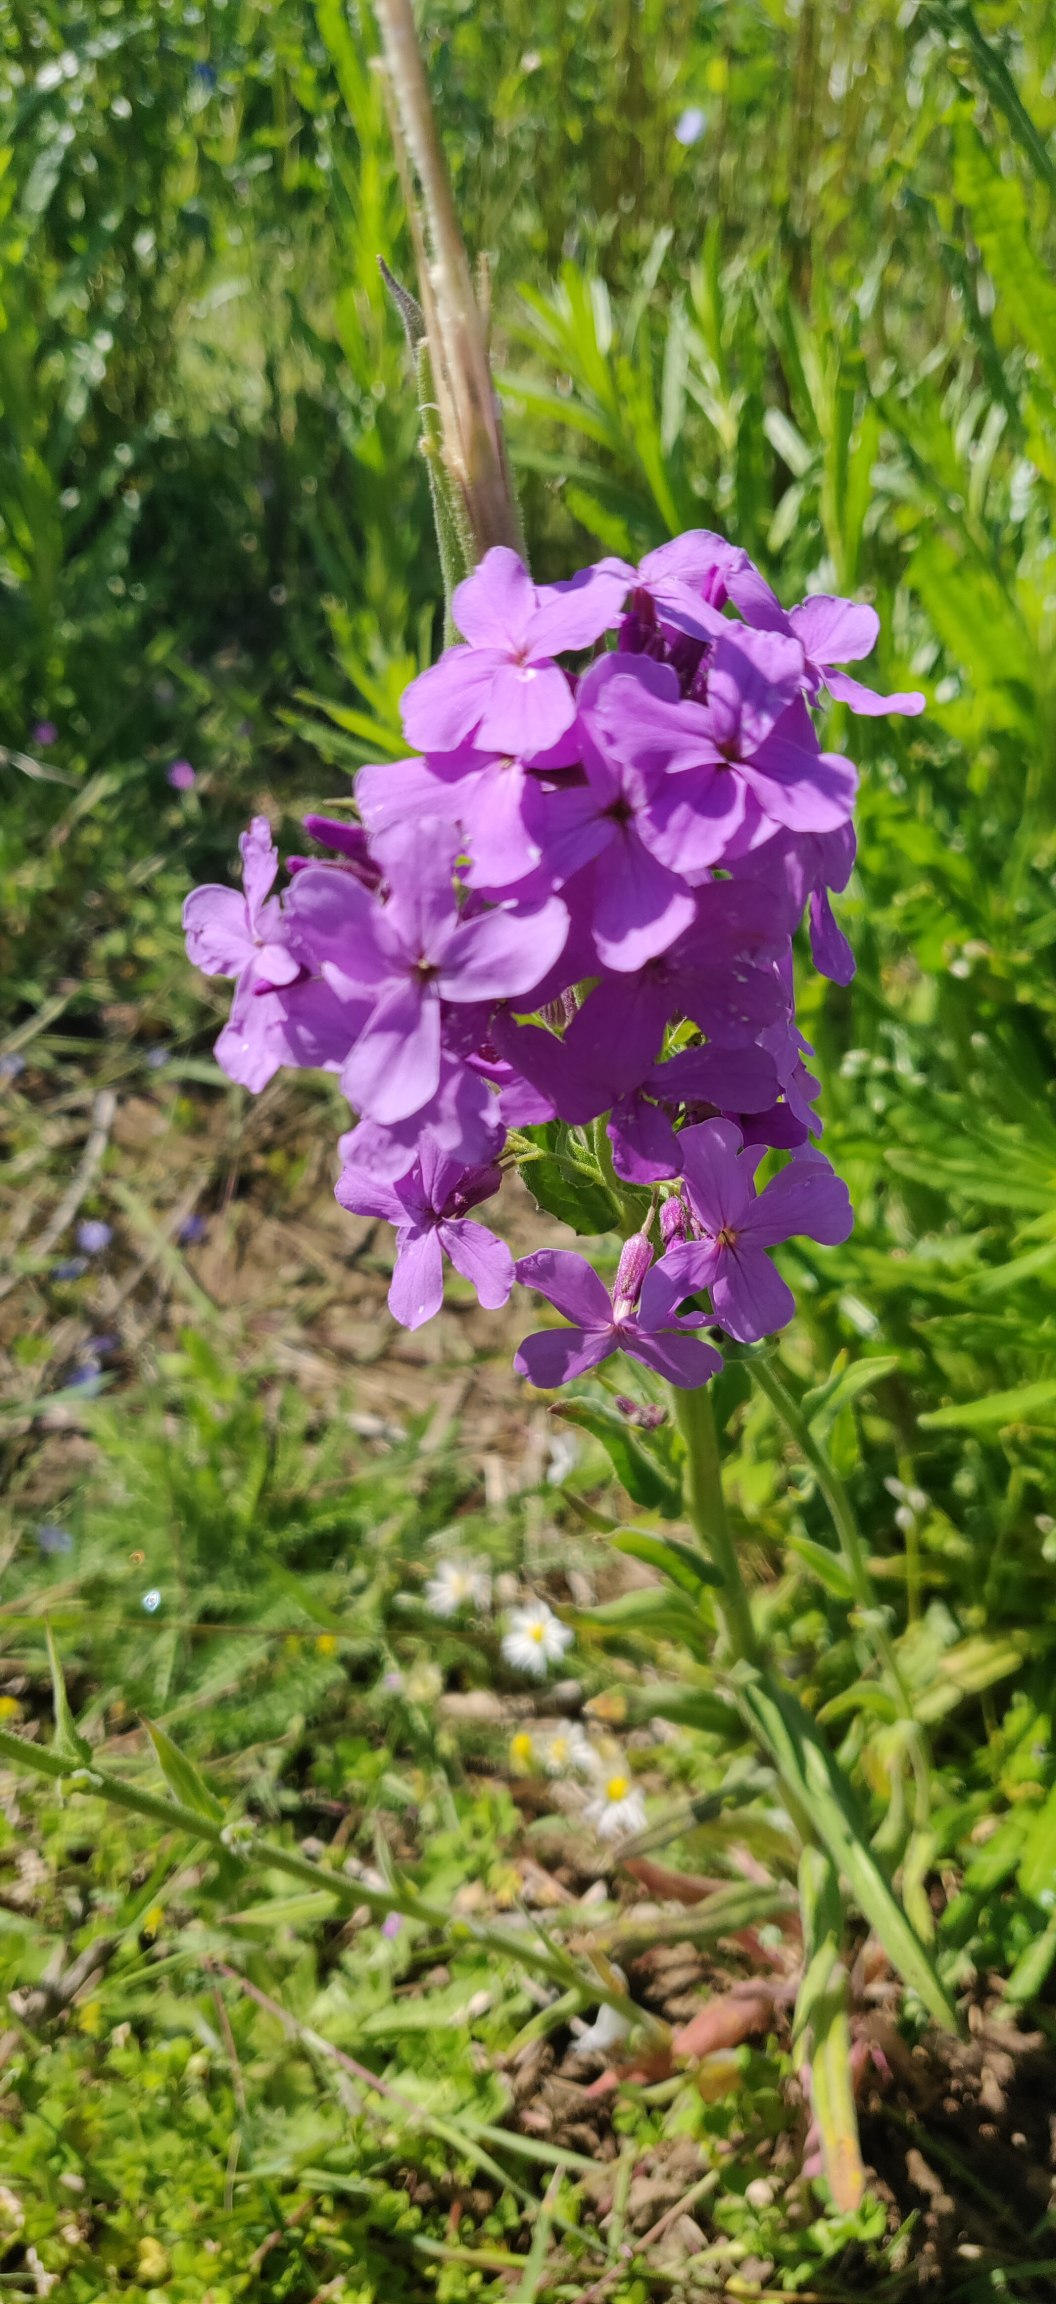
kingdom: Plantae
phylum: Tracheophyta
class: Magnoliopsida
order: Brassicales
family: Brassicaceae
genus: Hesperis
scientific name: Hesperis matronalis
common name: Aftenstjerne
